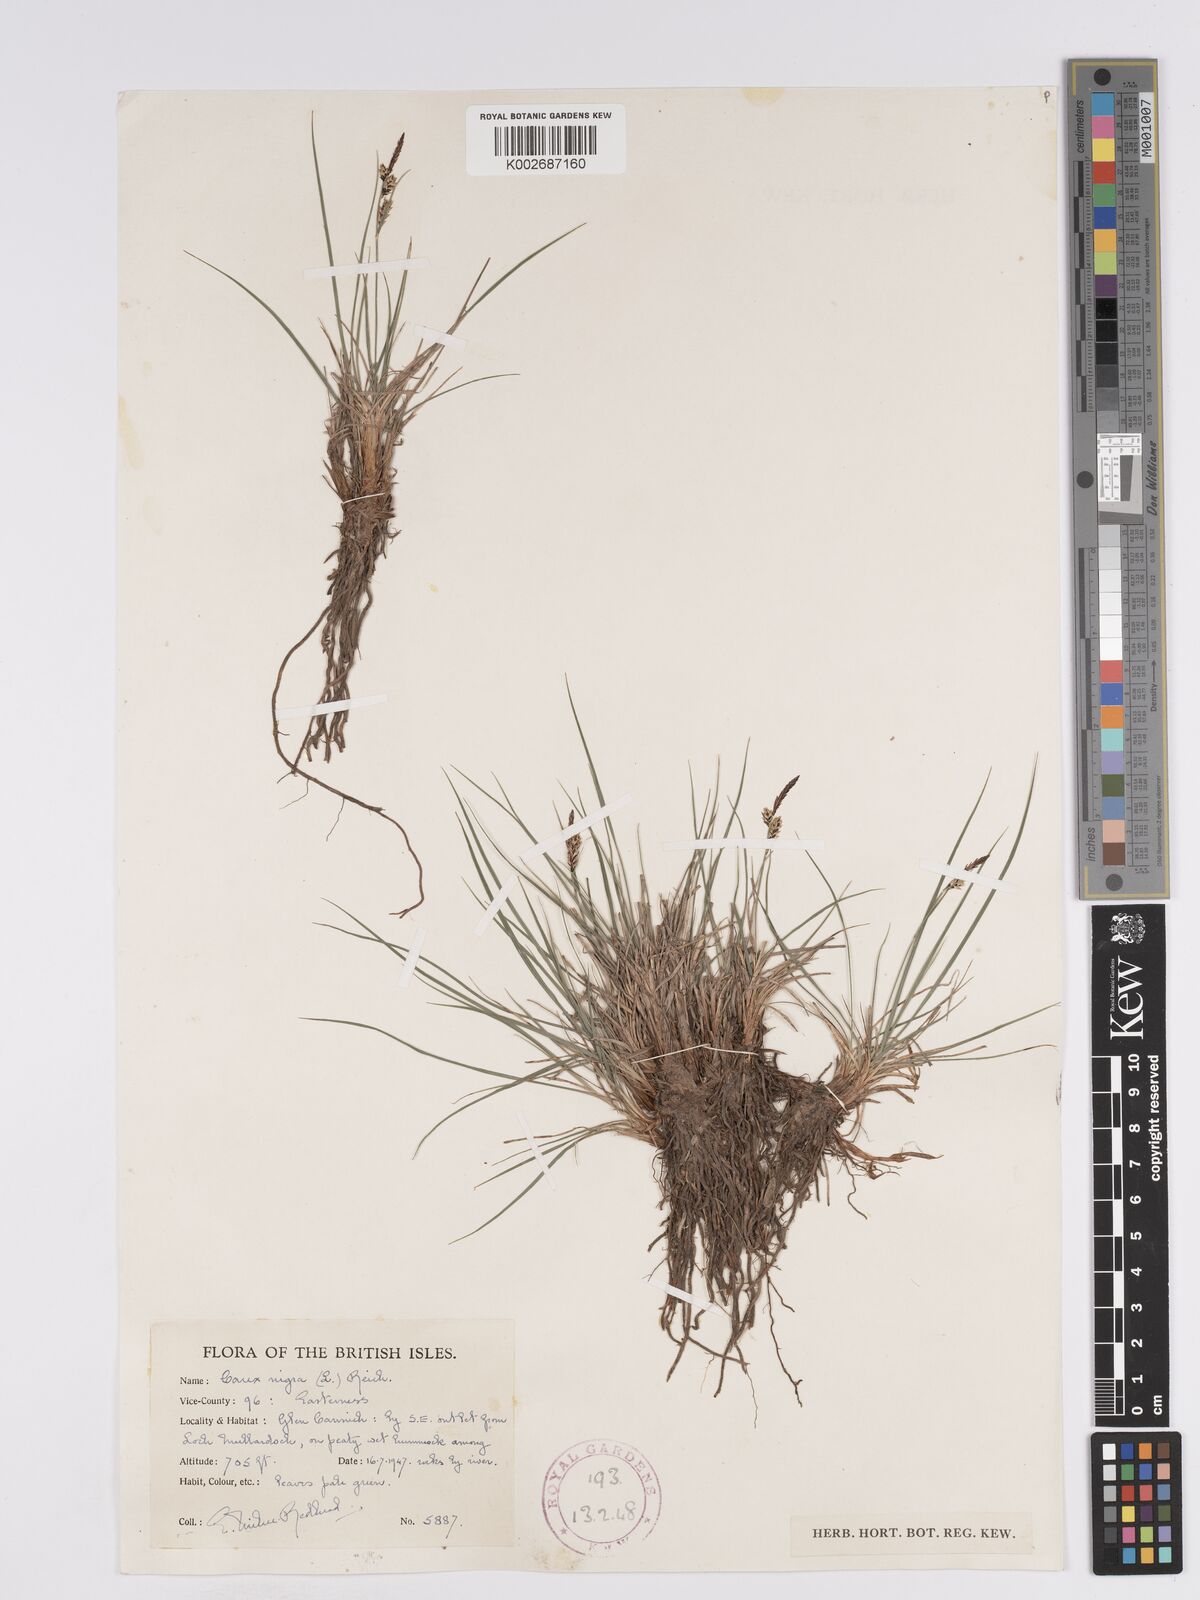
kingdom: Plantae
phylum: Tracheophyta
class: Liliopsida
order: Poales
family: Cyperaceae
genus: Carex
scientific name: Carex nigra
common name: Common sedge
